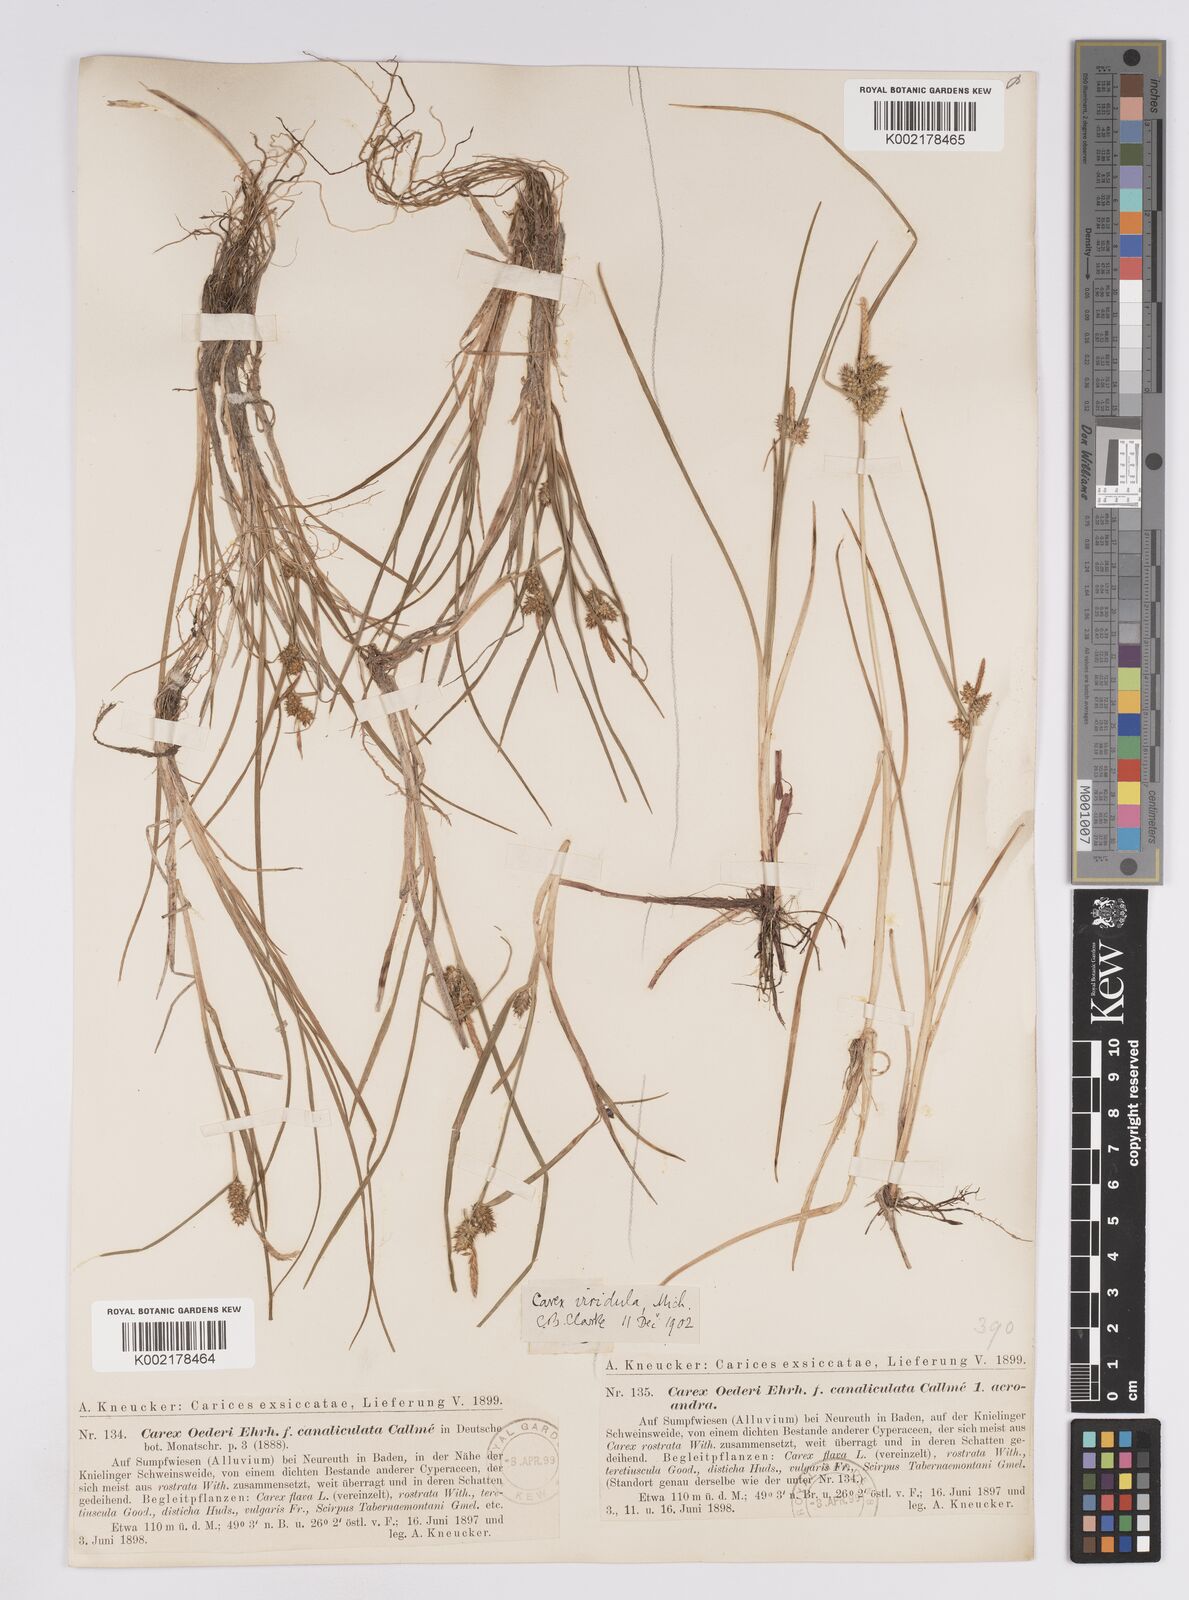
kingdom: Plantae
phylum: Tracheophyta
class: Liliopsida
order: Poales
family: Cyperaceae
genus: Carex
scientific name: Carex demissa
